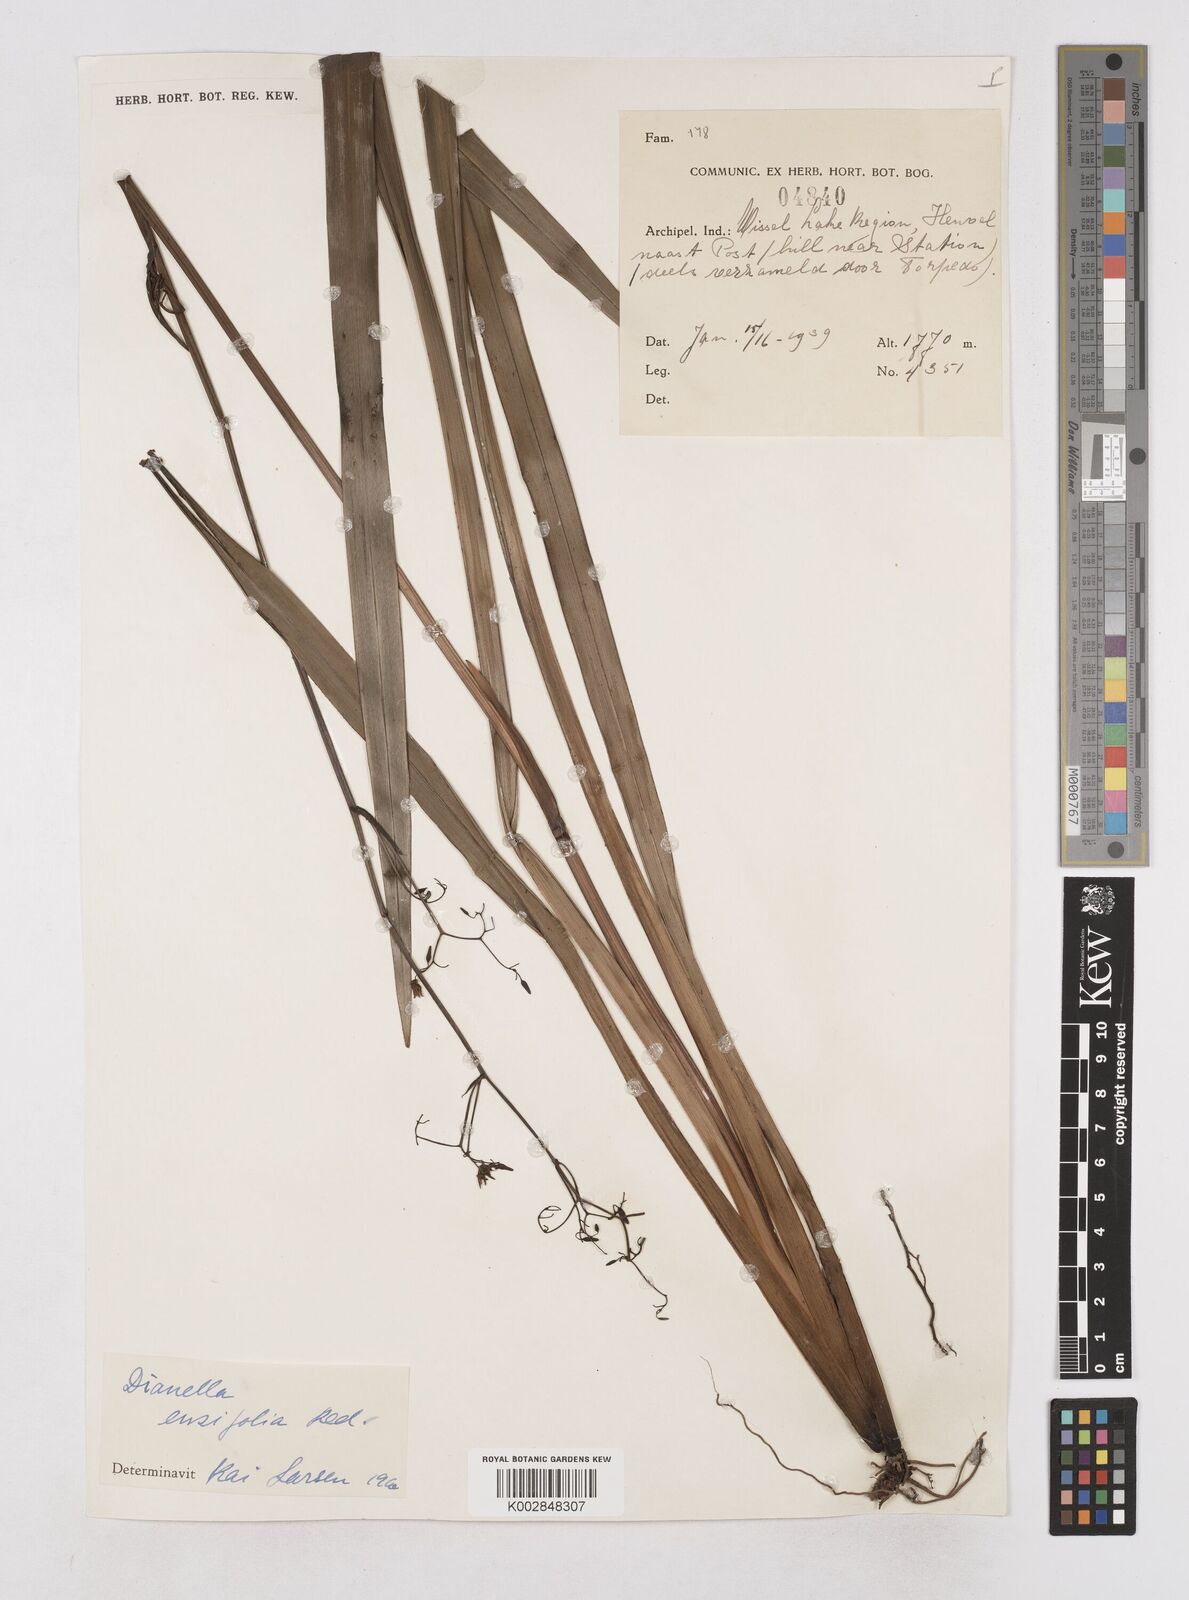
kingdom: Plantae
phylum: Tracheophyta
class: Liliopsida
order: Asparagales
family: Asphodelaceae
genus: Dianella
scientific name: Dianella ensifolia
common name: New zealand lilyplant
